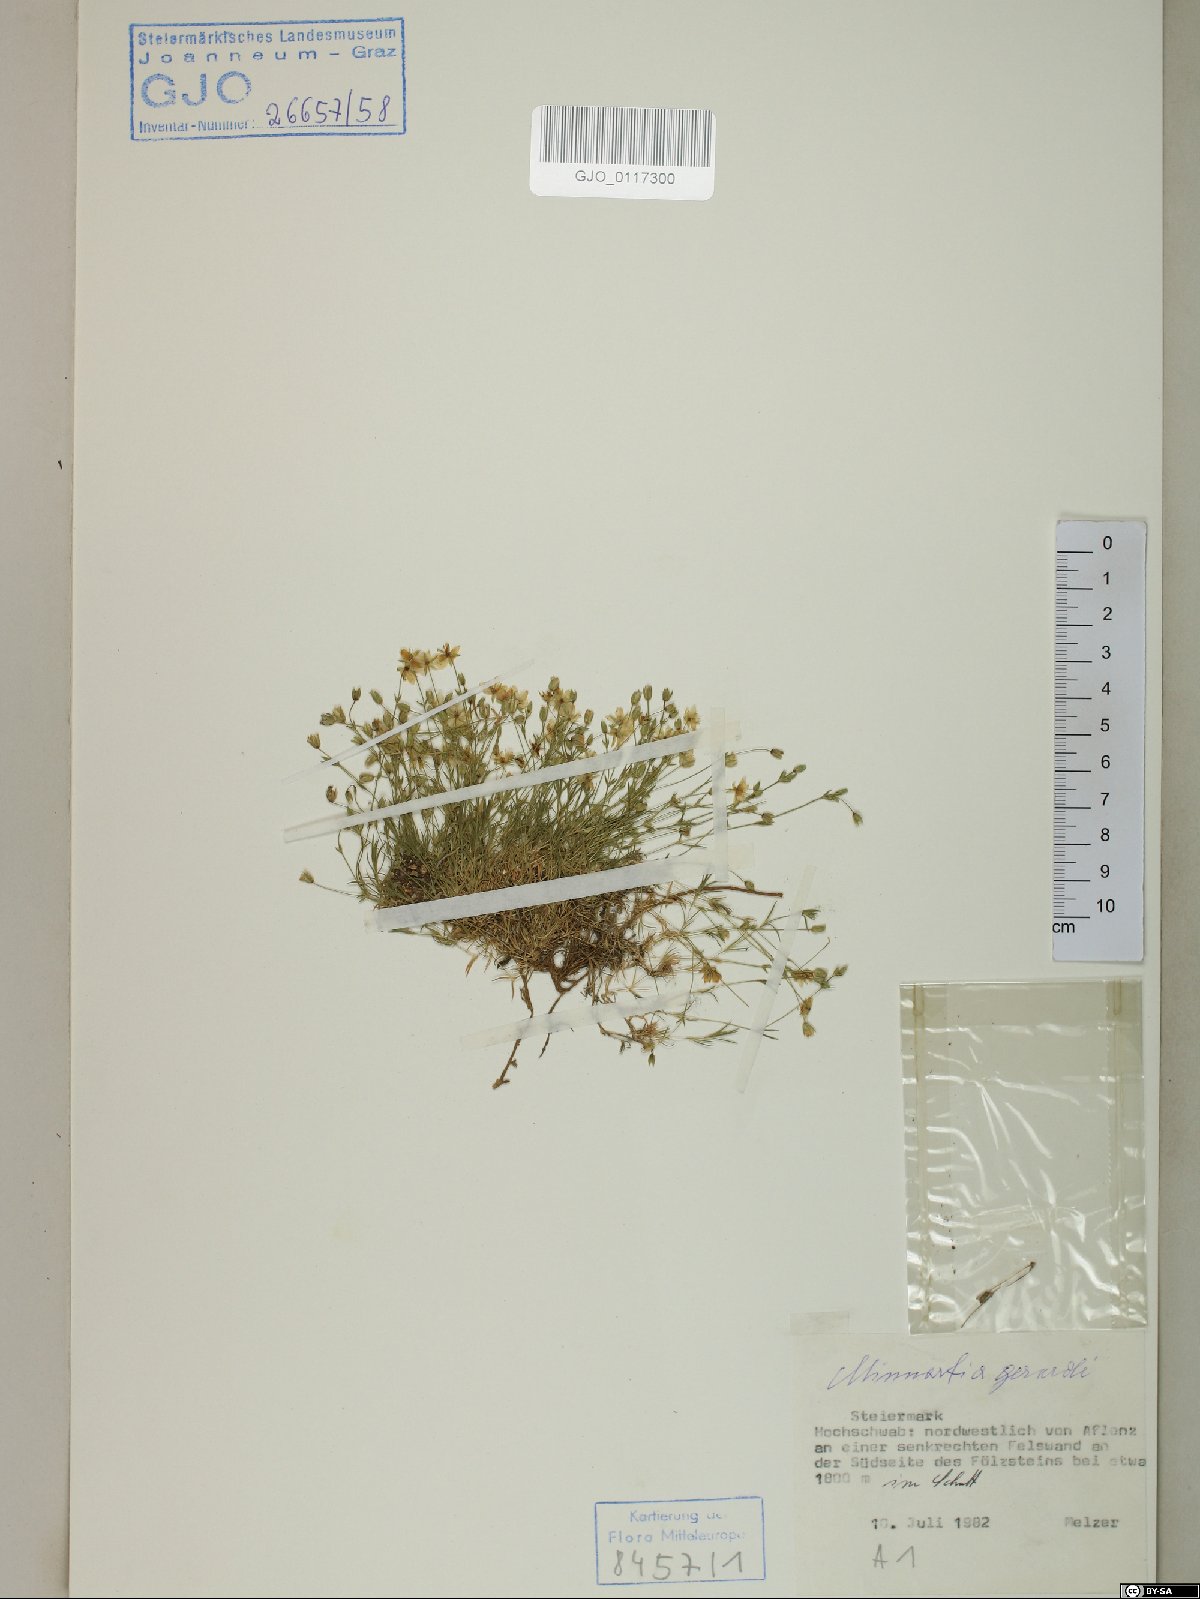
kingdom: Plantae
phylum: Tracheophyta
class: Magnoliopsida
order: Caryophyllales
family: Caryophyllaceae
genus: Sabulina
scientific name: Sabulina verna
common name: Spring sandwort
